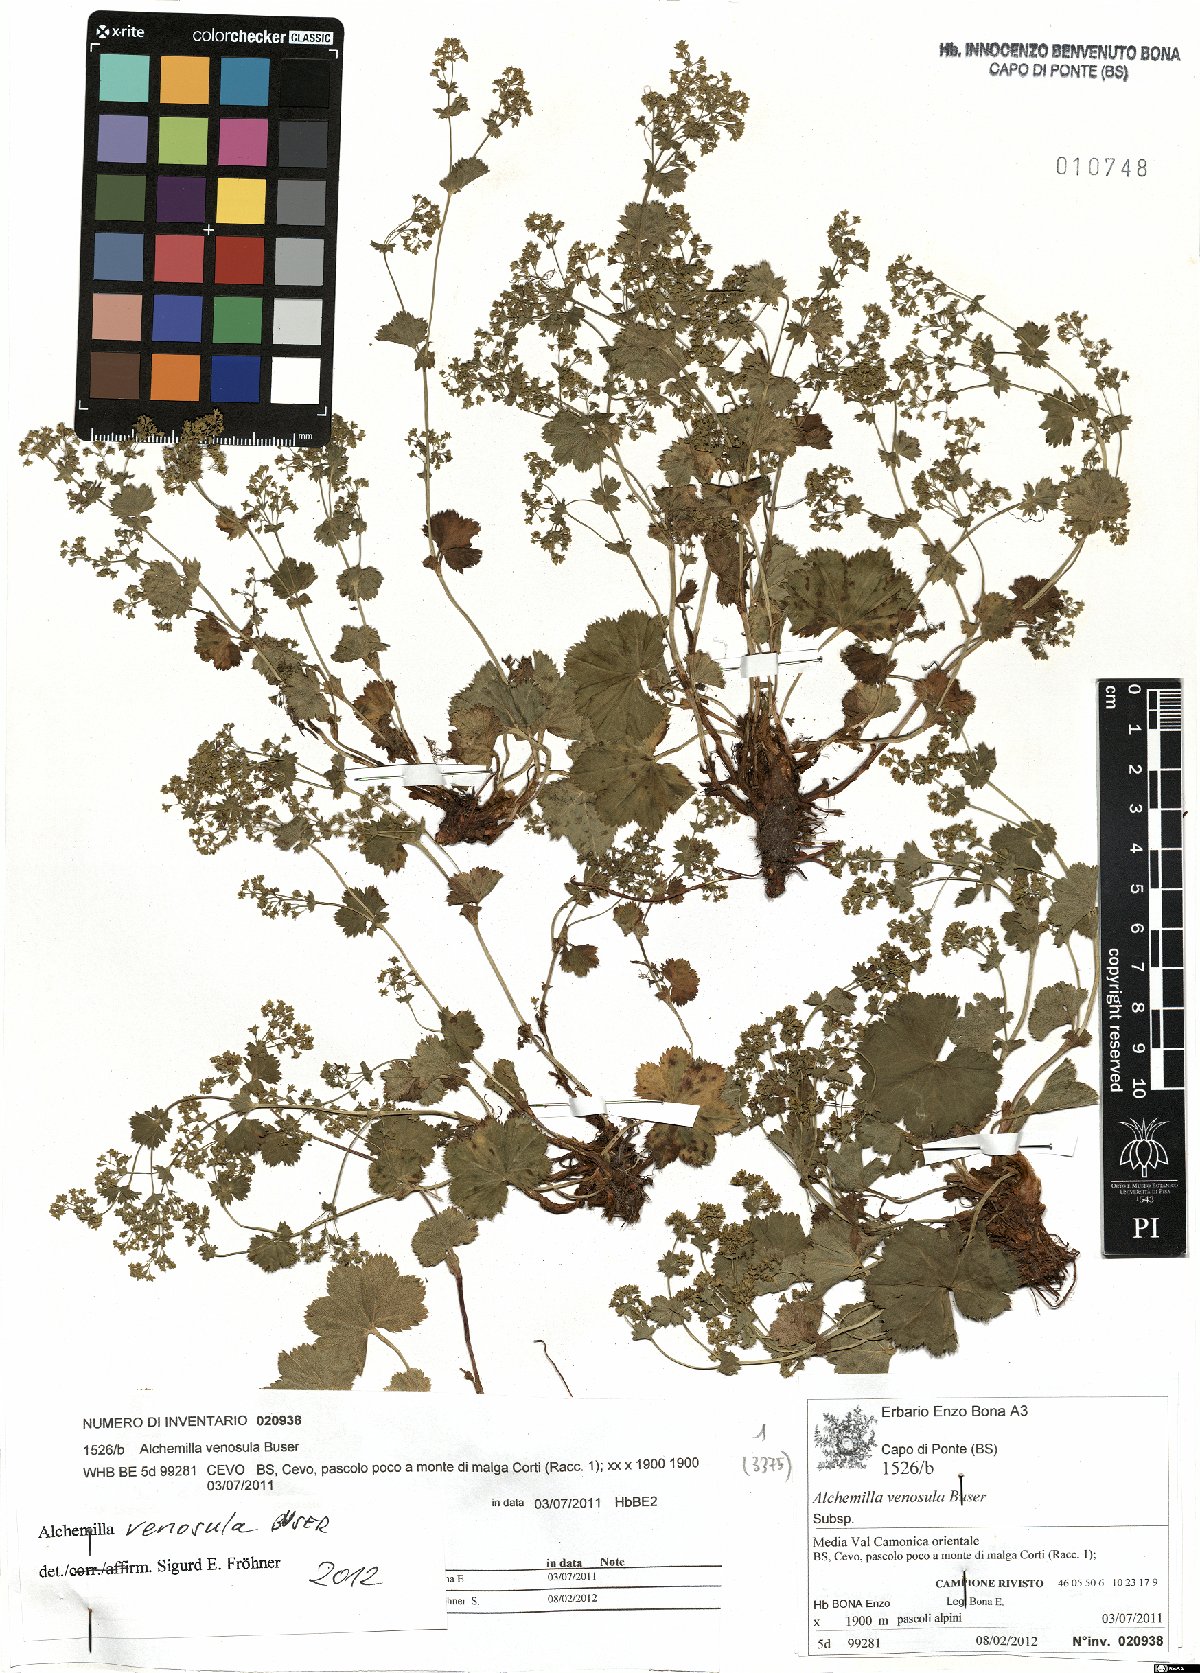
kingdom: Plantae
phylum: Tracheophyta
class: Magnoliopsida
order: Rosales
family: Rosaceae
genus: Alchemilla
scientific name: Alchemilla venosula
